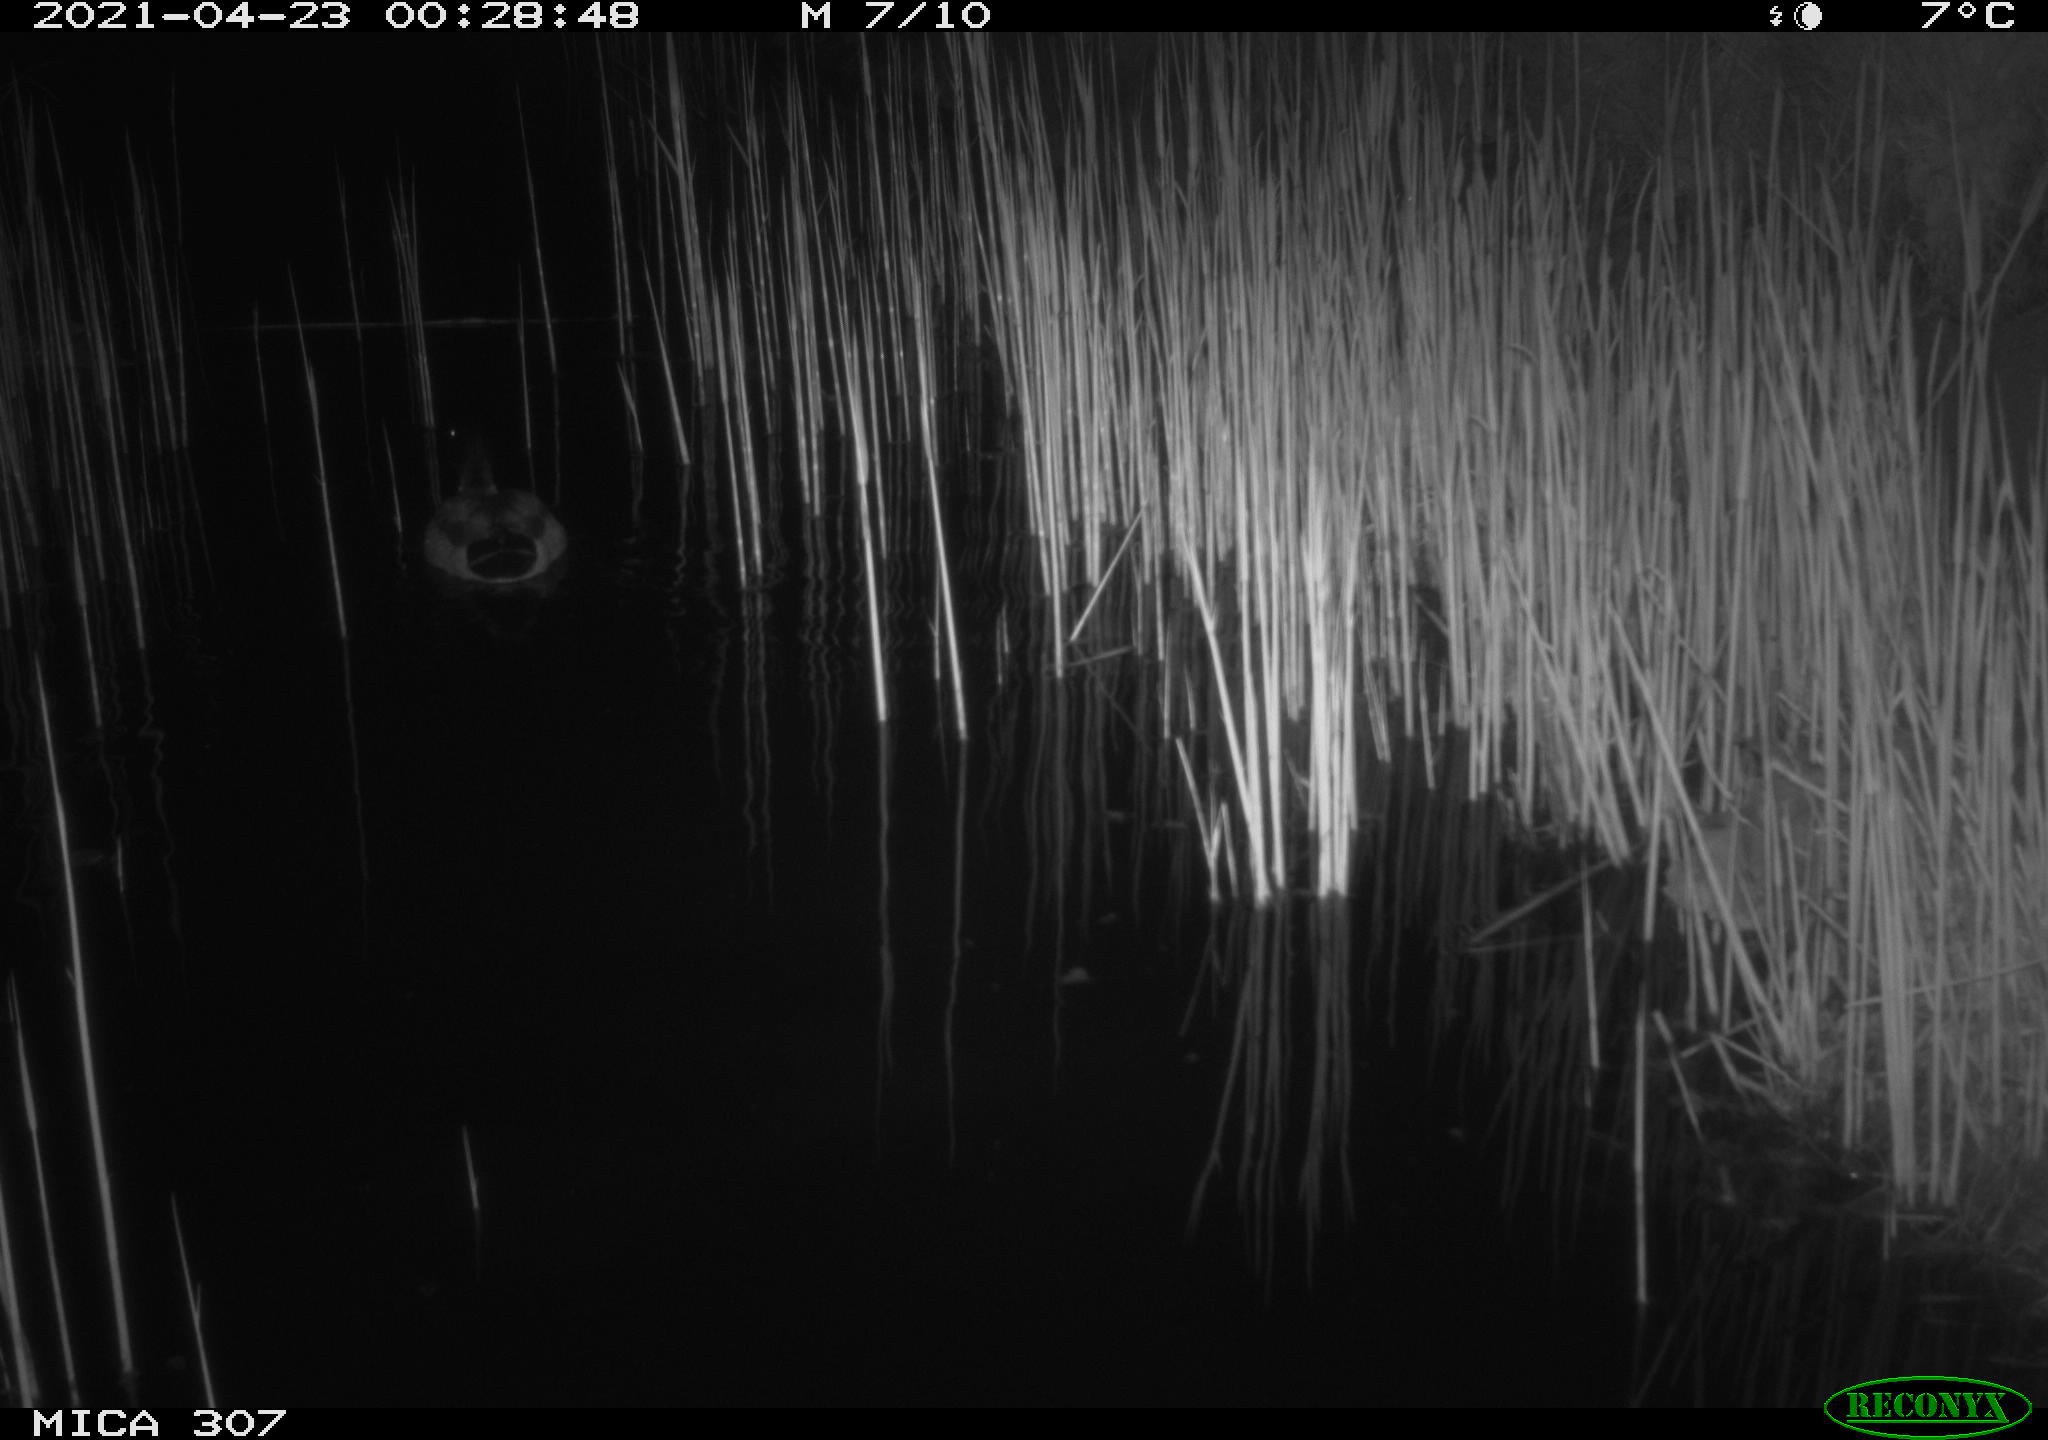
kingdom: Animalia
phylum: Chordata
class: Aves
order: Anseriformes
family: Anatidae
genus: Anas
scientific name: Anas platyrhynchos
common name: Mallard
